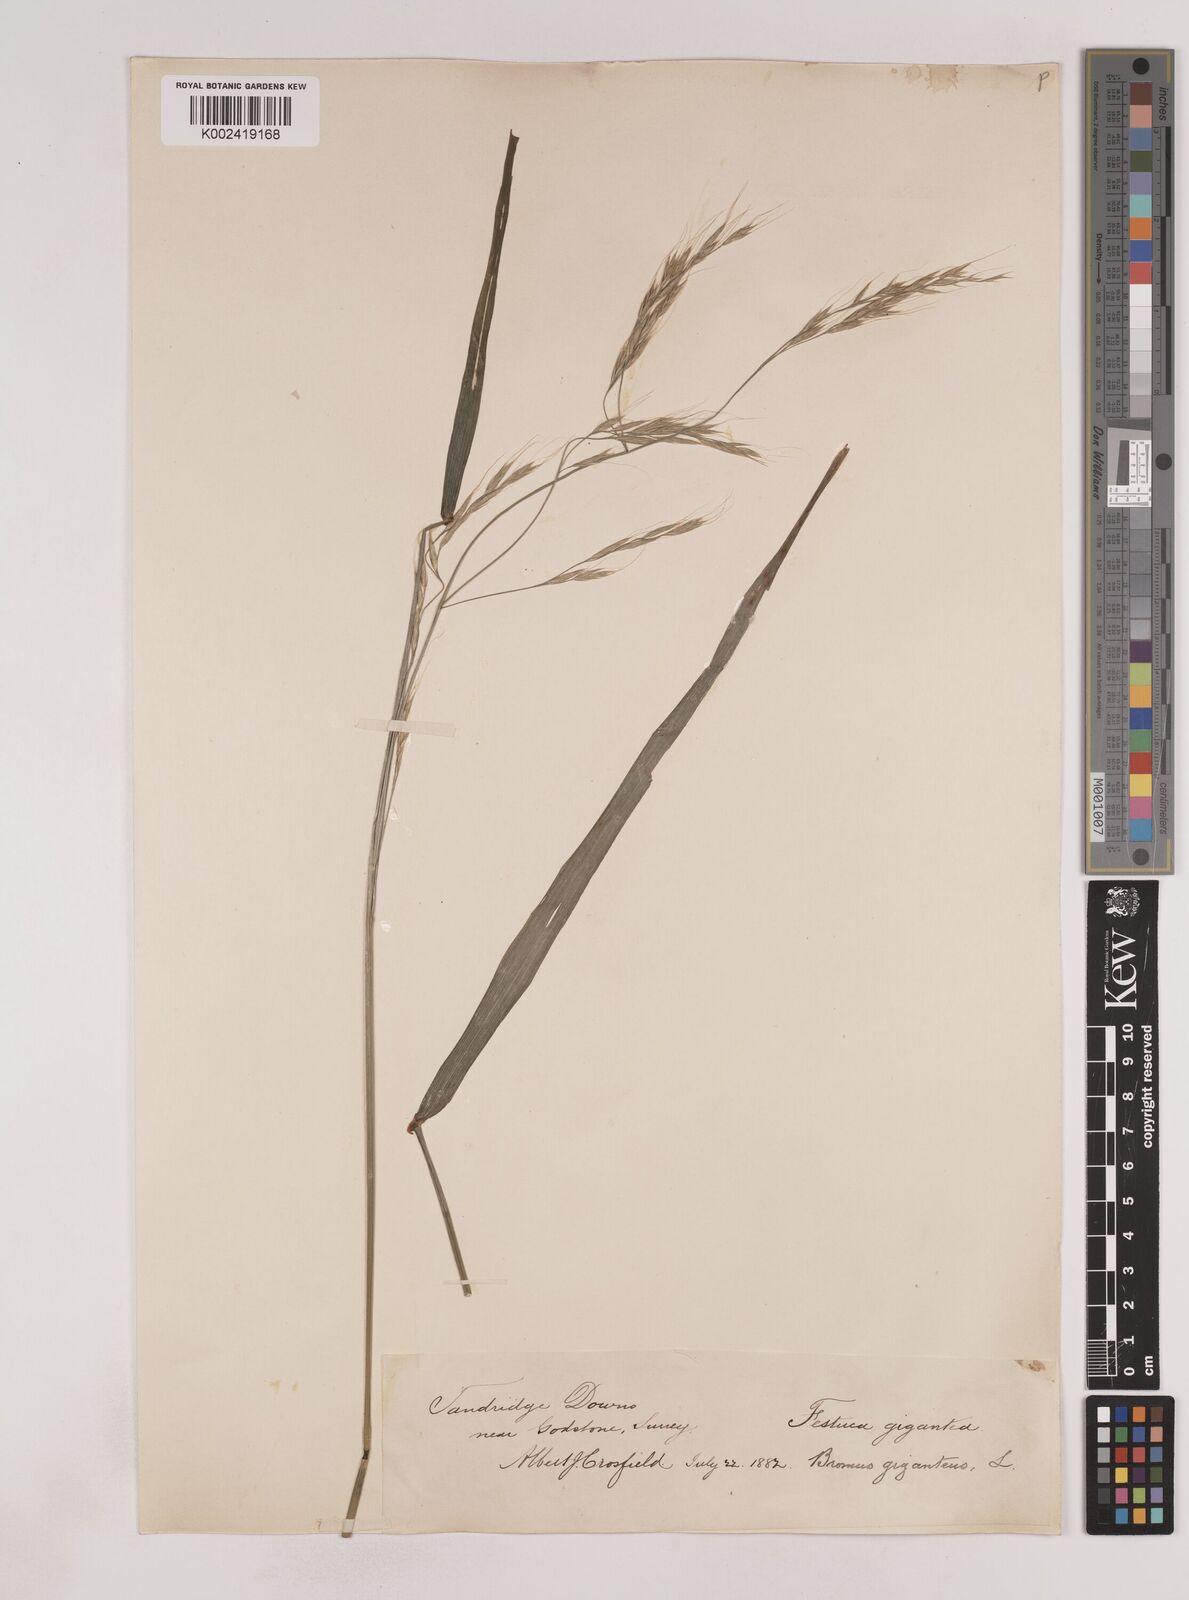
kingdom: Plantae
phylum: Tracheophyta
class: Liliopsida
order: Poales
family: Poaceae
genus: Lolium
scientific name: Lolium giganteum
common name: Giant fescue
